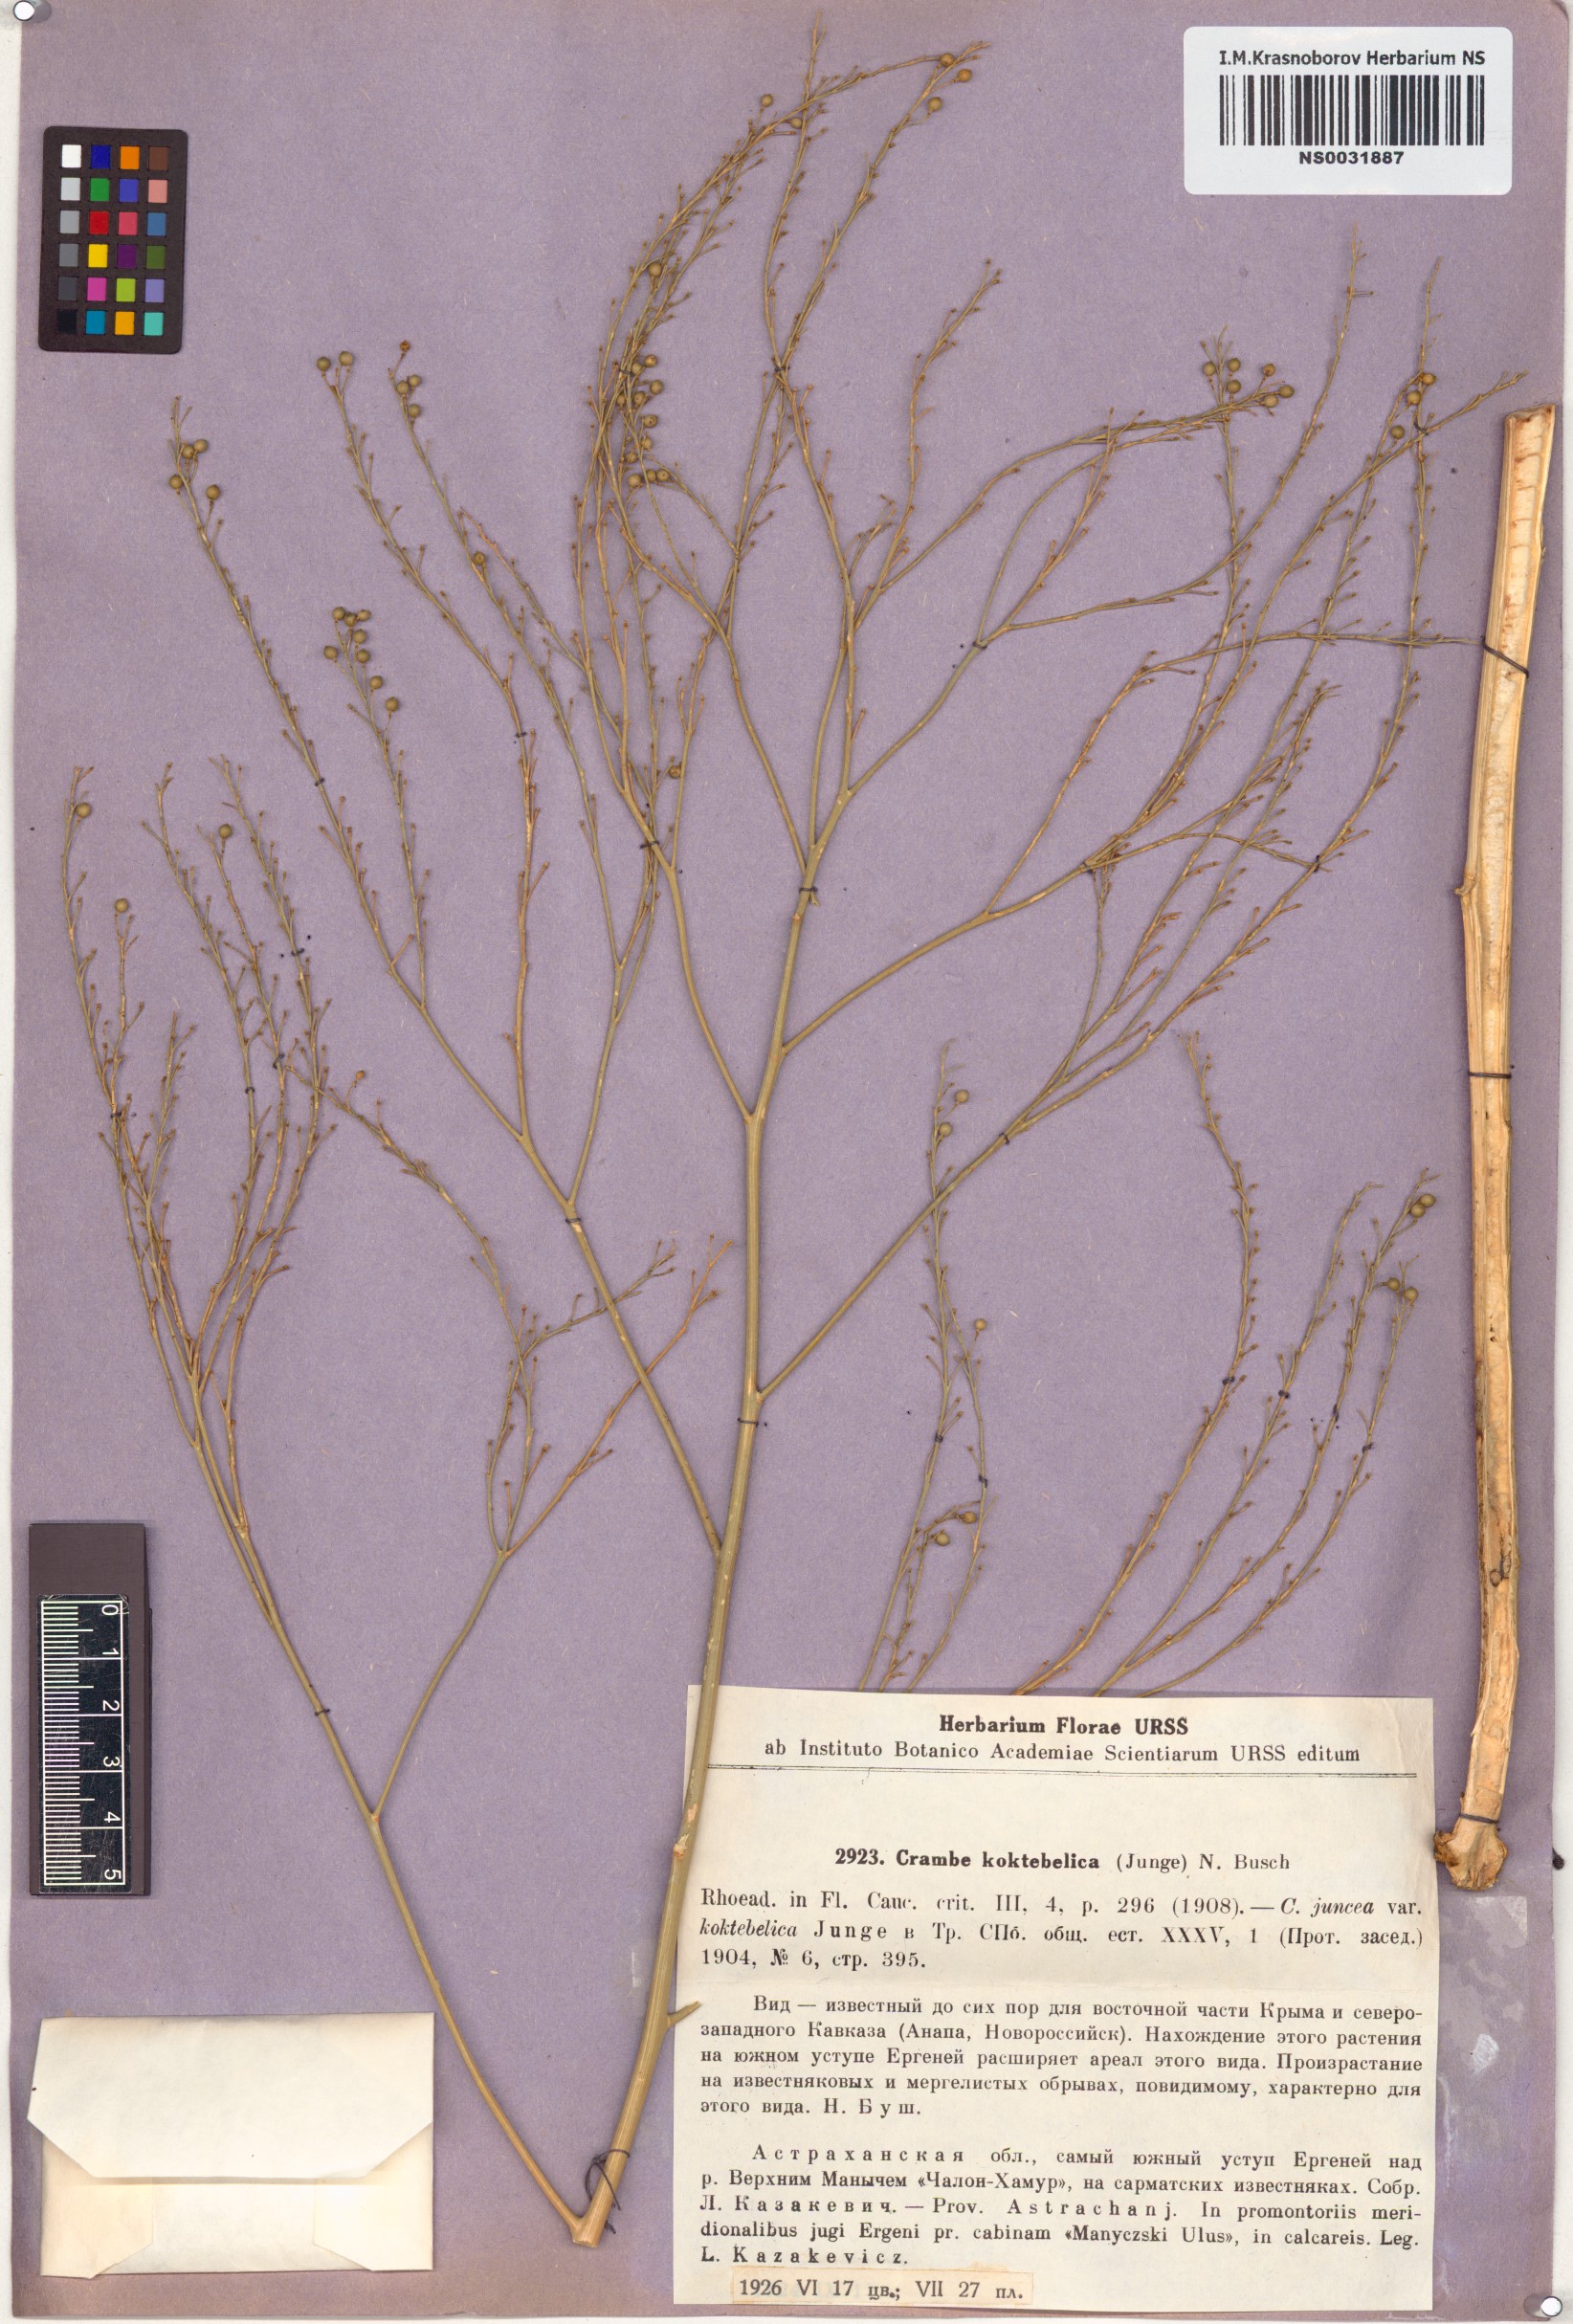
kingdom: Plantae
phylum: Tracheophyta
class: Magnoliopsida
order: Brassicales
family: Brassicaceae
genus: Crambe
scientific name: Crambe koktebelica
